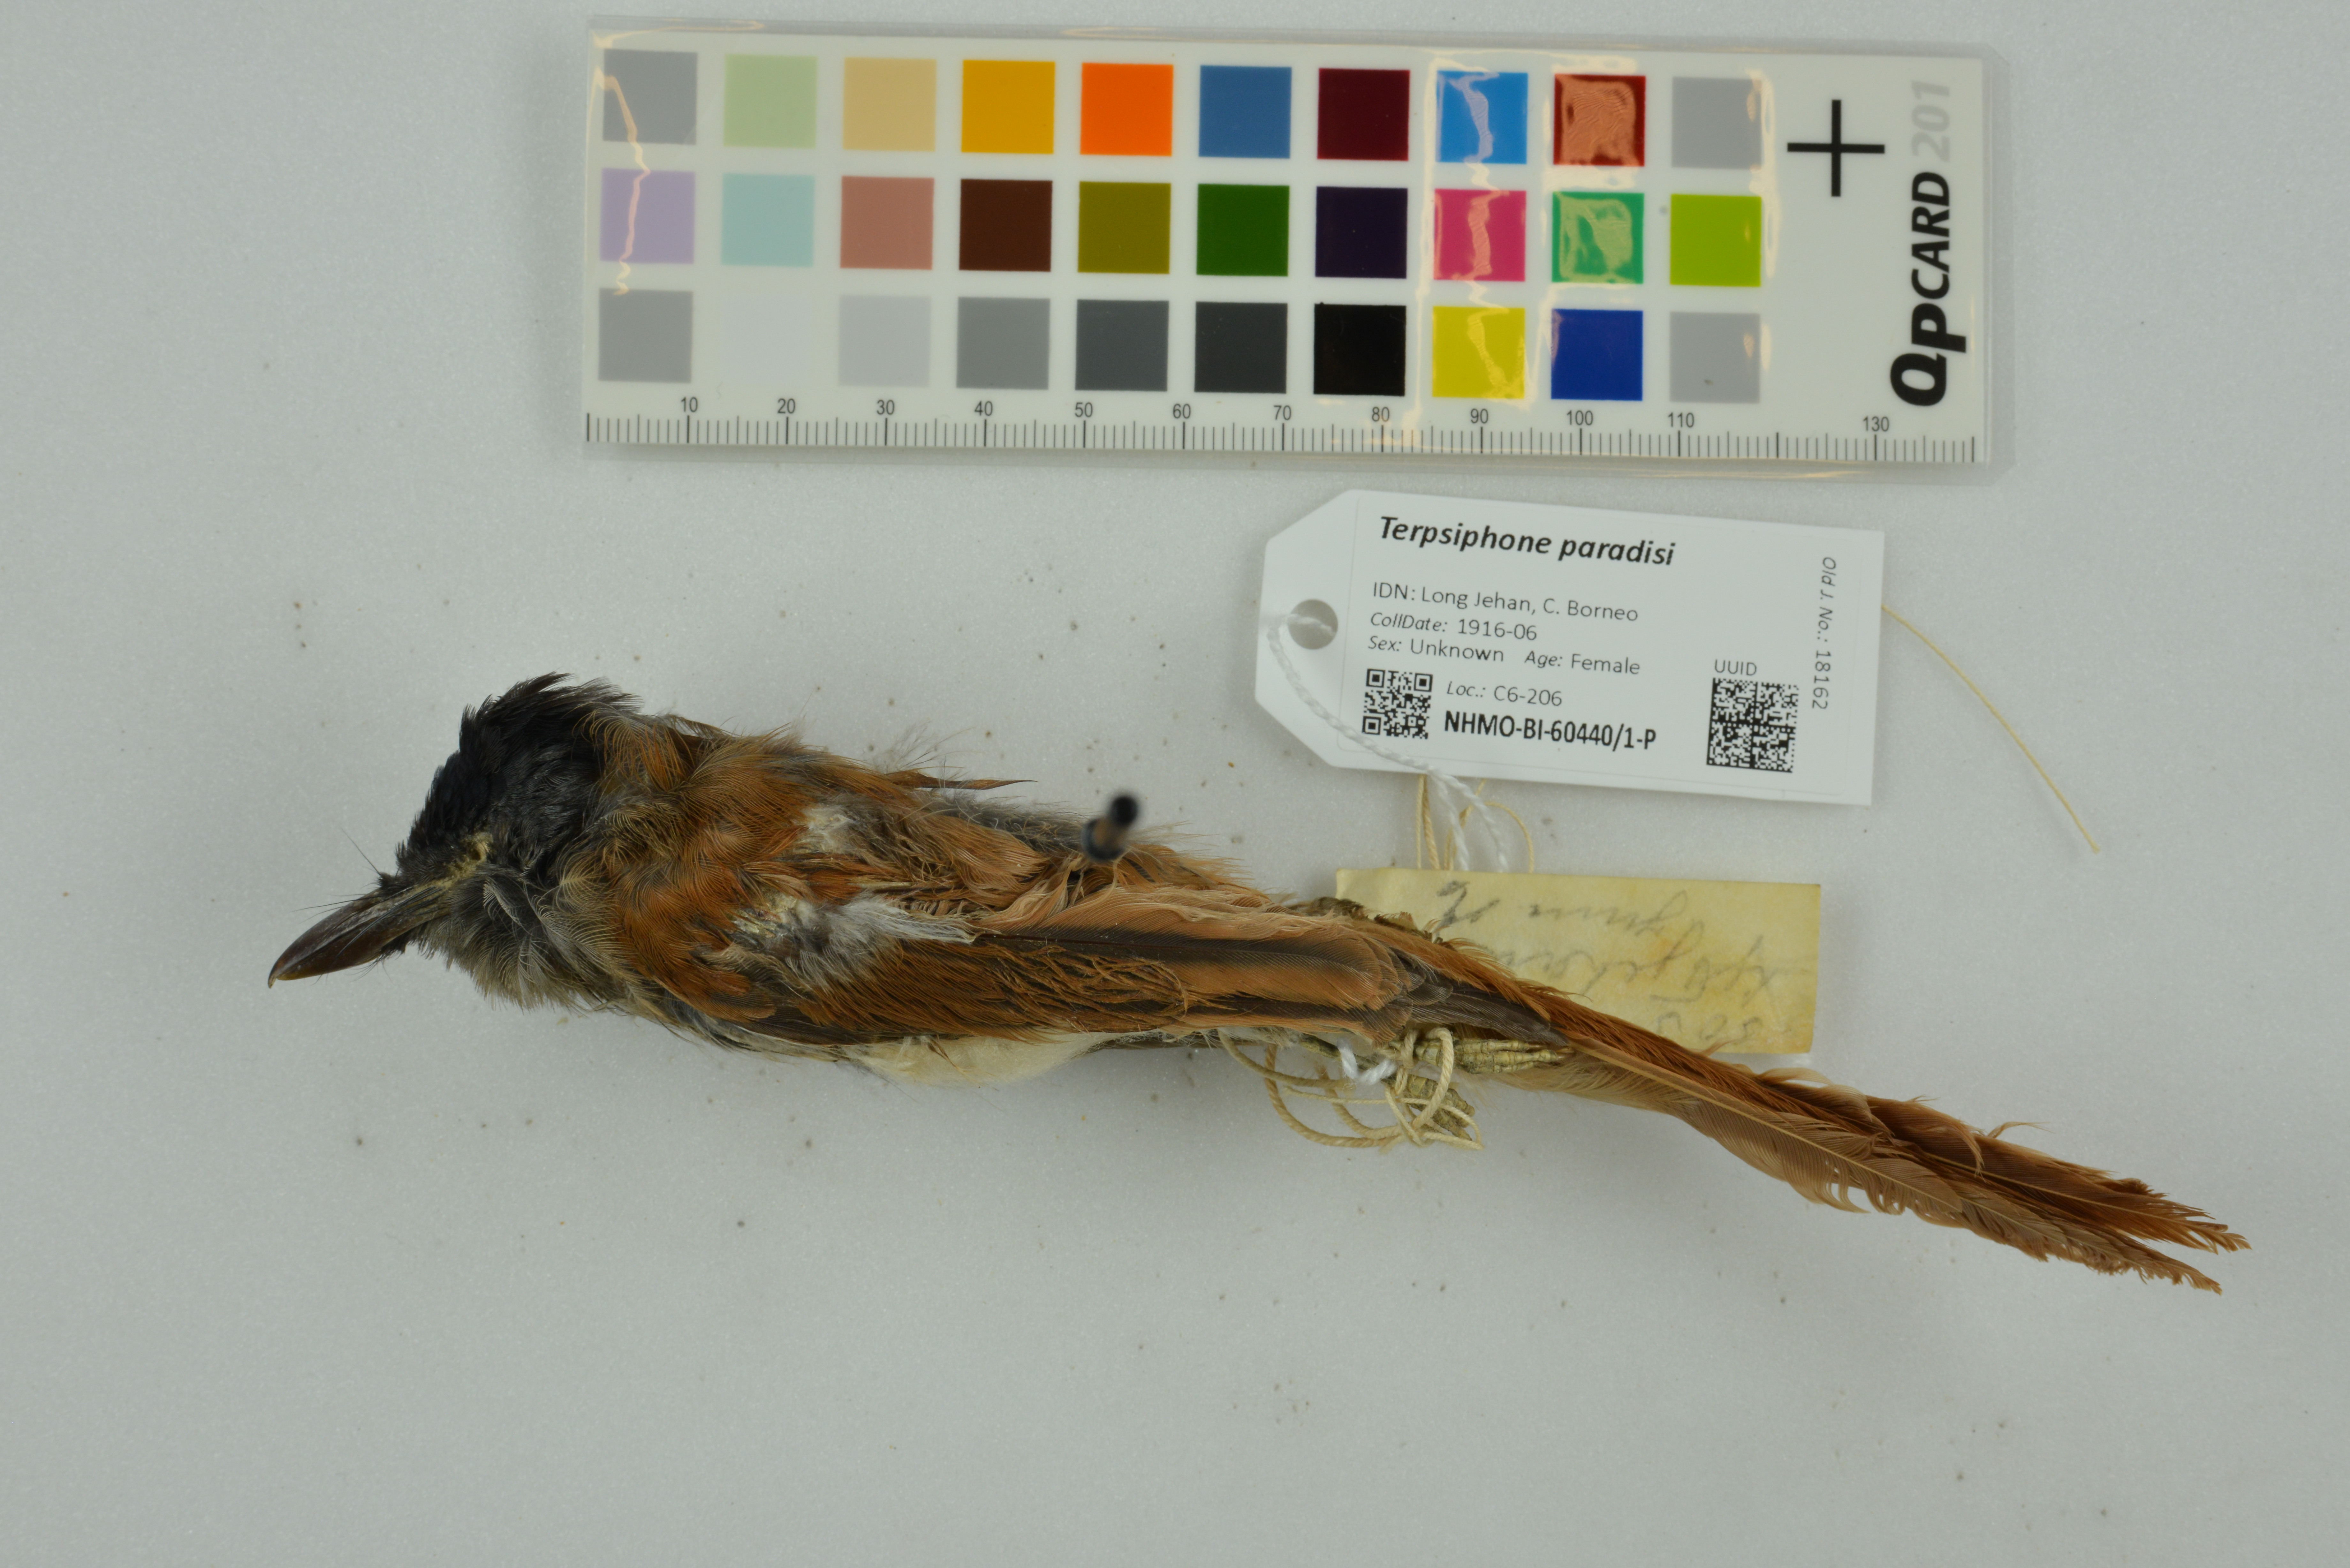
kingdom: Animalia
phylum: Chordata
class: Aves
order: Passeriformes
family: Monarchidae
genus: Terpsiphone
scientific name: Terpsiphone paradisi
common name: Indian paradise flycatcher
